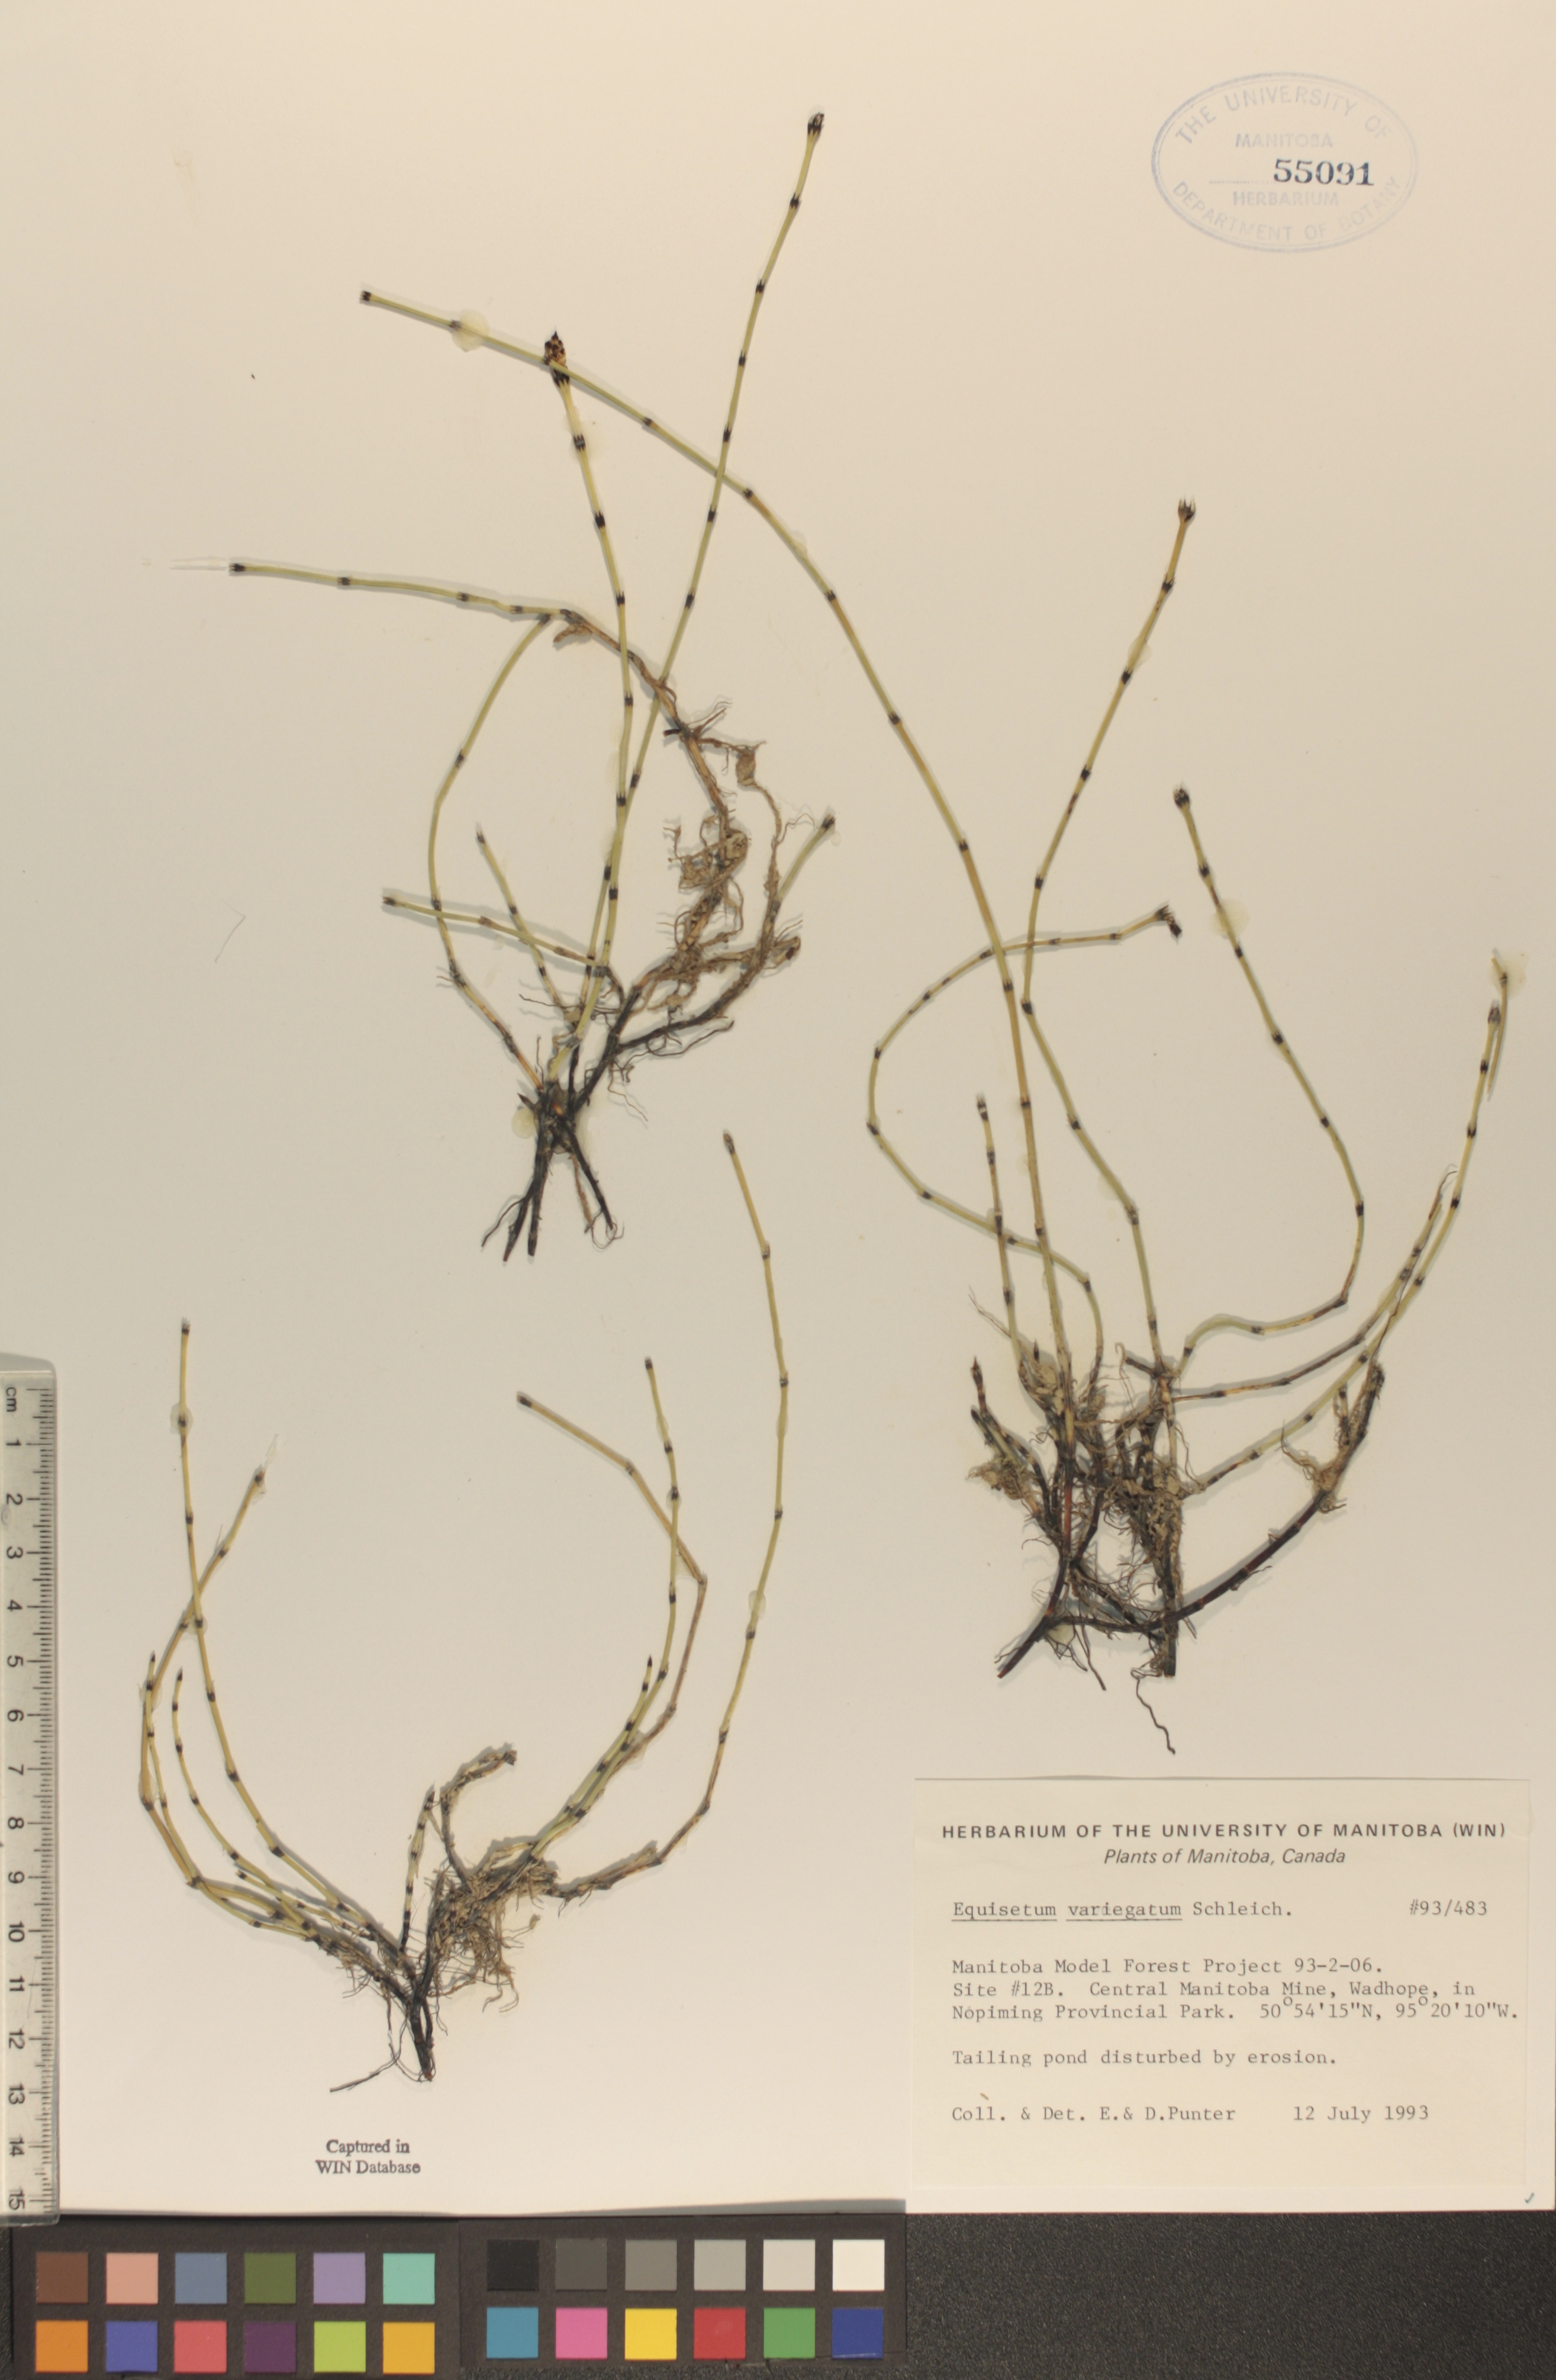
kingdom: Plantae
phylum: Tracheophyta
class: Polypodiopsida
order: Equisetales
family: Equisetaceae
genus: Equisetum
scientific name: Equisetum variegatum
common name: Variegated horsetail
